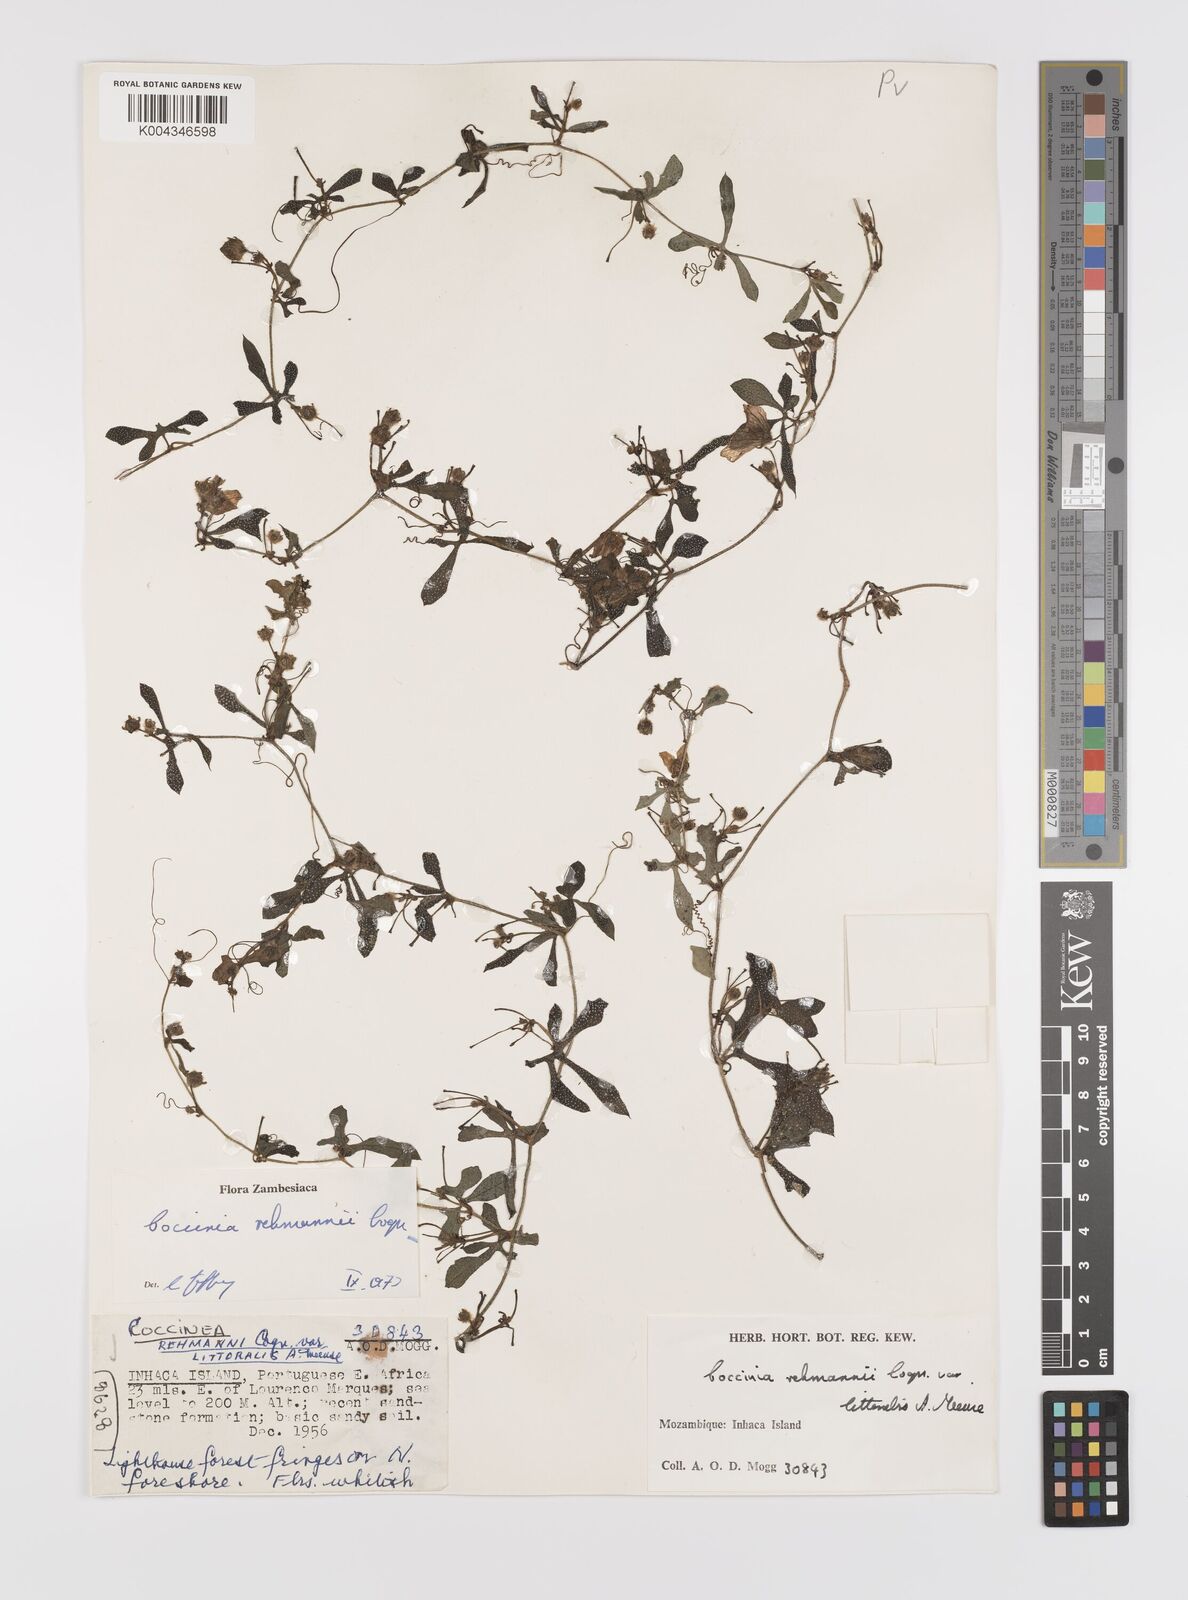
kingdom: Plantae
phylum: Tracheophyta
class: Magnoliopsida
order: Cucurbitales
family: Cucurbitaceae
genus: Coccinia
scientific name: Coccinia rehmannii
